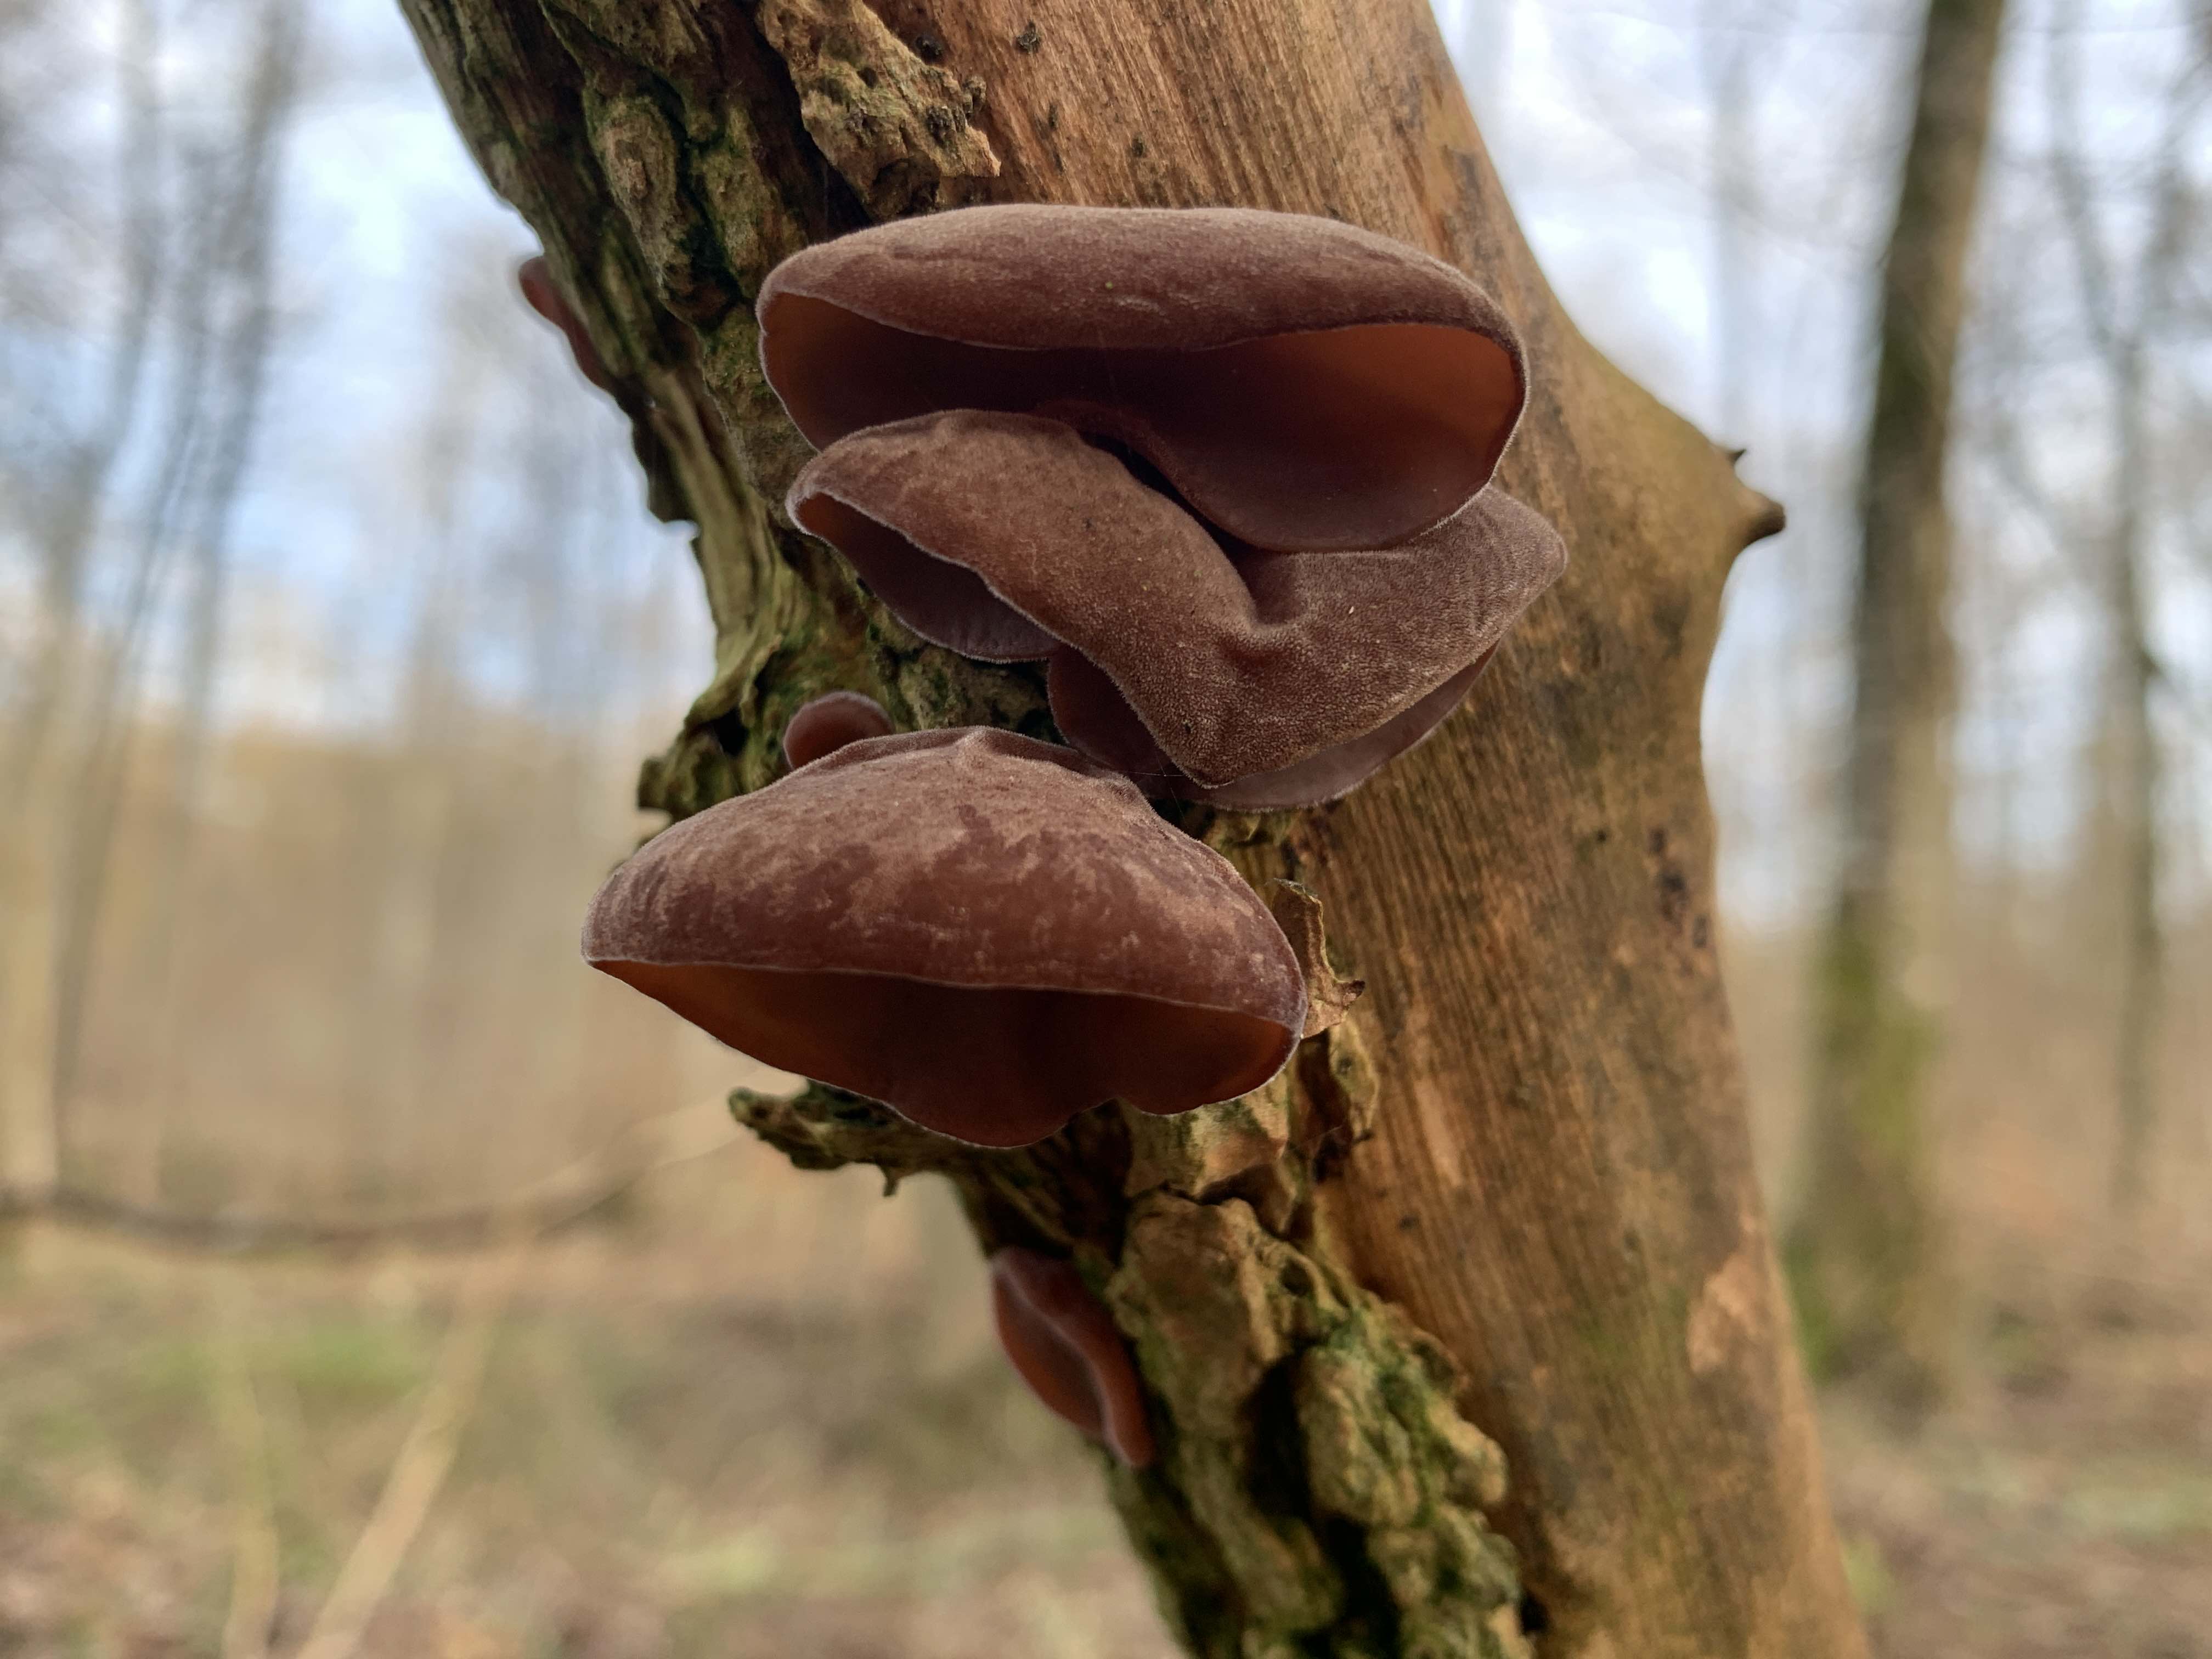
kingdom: Fungi
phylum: Basidiomycota
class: Agaricomycetes
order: Auriculariales
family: Auriculariaceae
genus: Auricularia
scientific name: Auricularia auricula-judae
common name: almindelig judasøre
